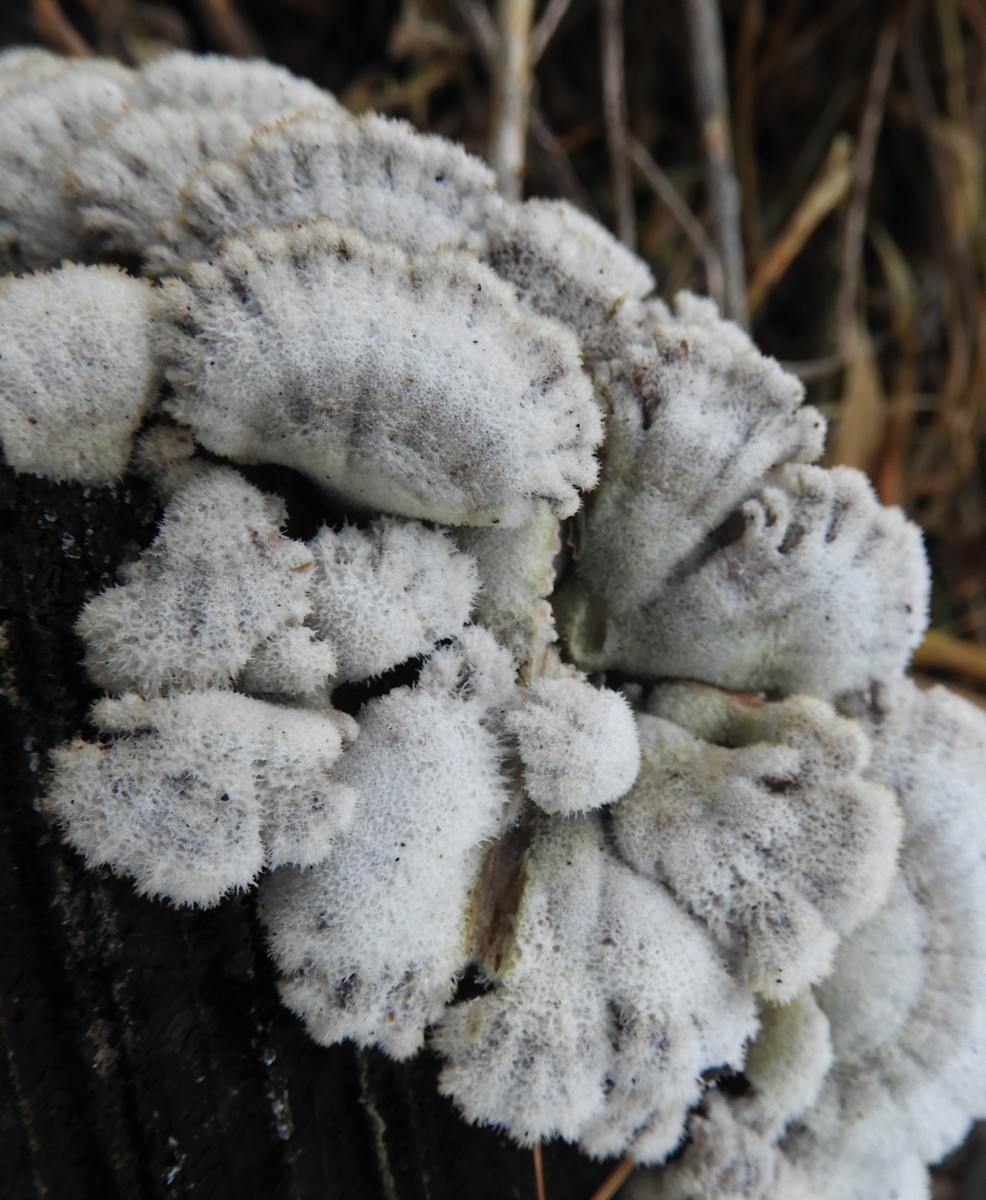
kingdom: Fungi
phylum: Basidiomycota
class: Agaricomycetes
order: Agaricales
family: Schizophyllaceae
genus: Schizophyllum
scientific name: Schizophyllum commune
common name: kløvblad
